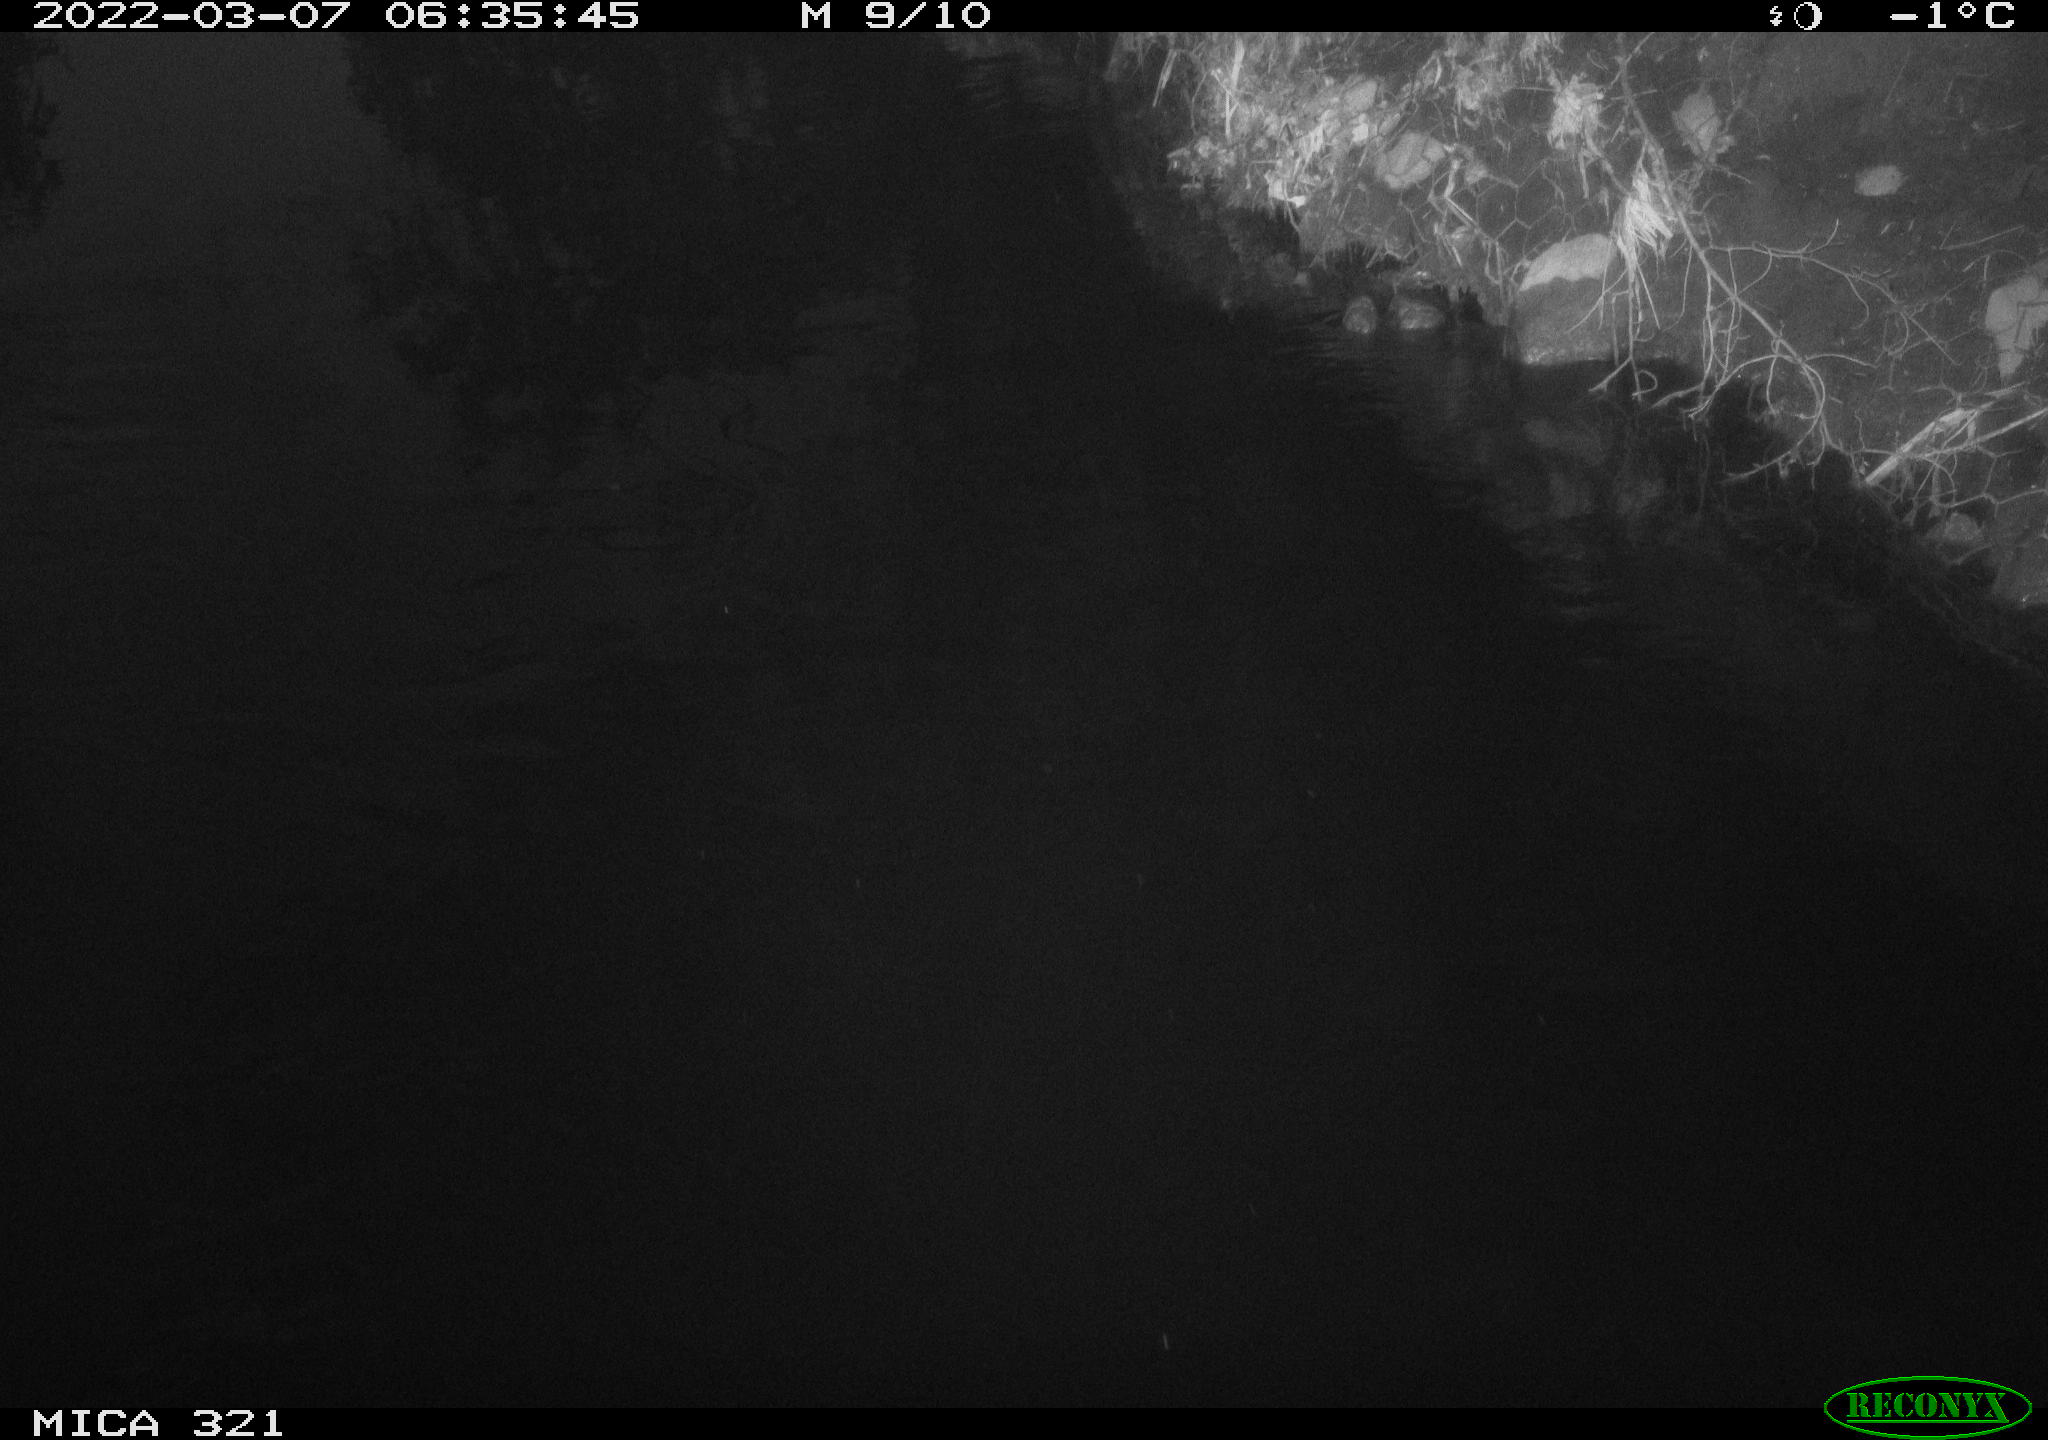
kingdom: Animalia
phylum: Chordata
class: Aves
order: Anseriformes
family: Anatidae
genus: Anas
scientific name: Anas platyrhynchos
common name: Mallard
